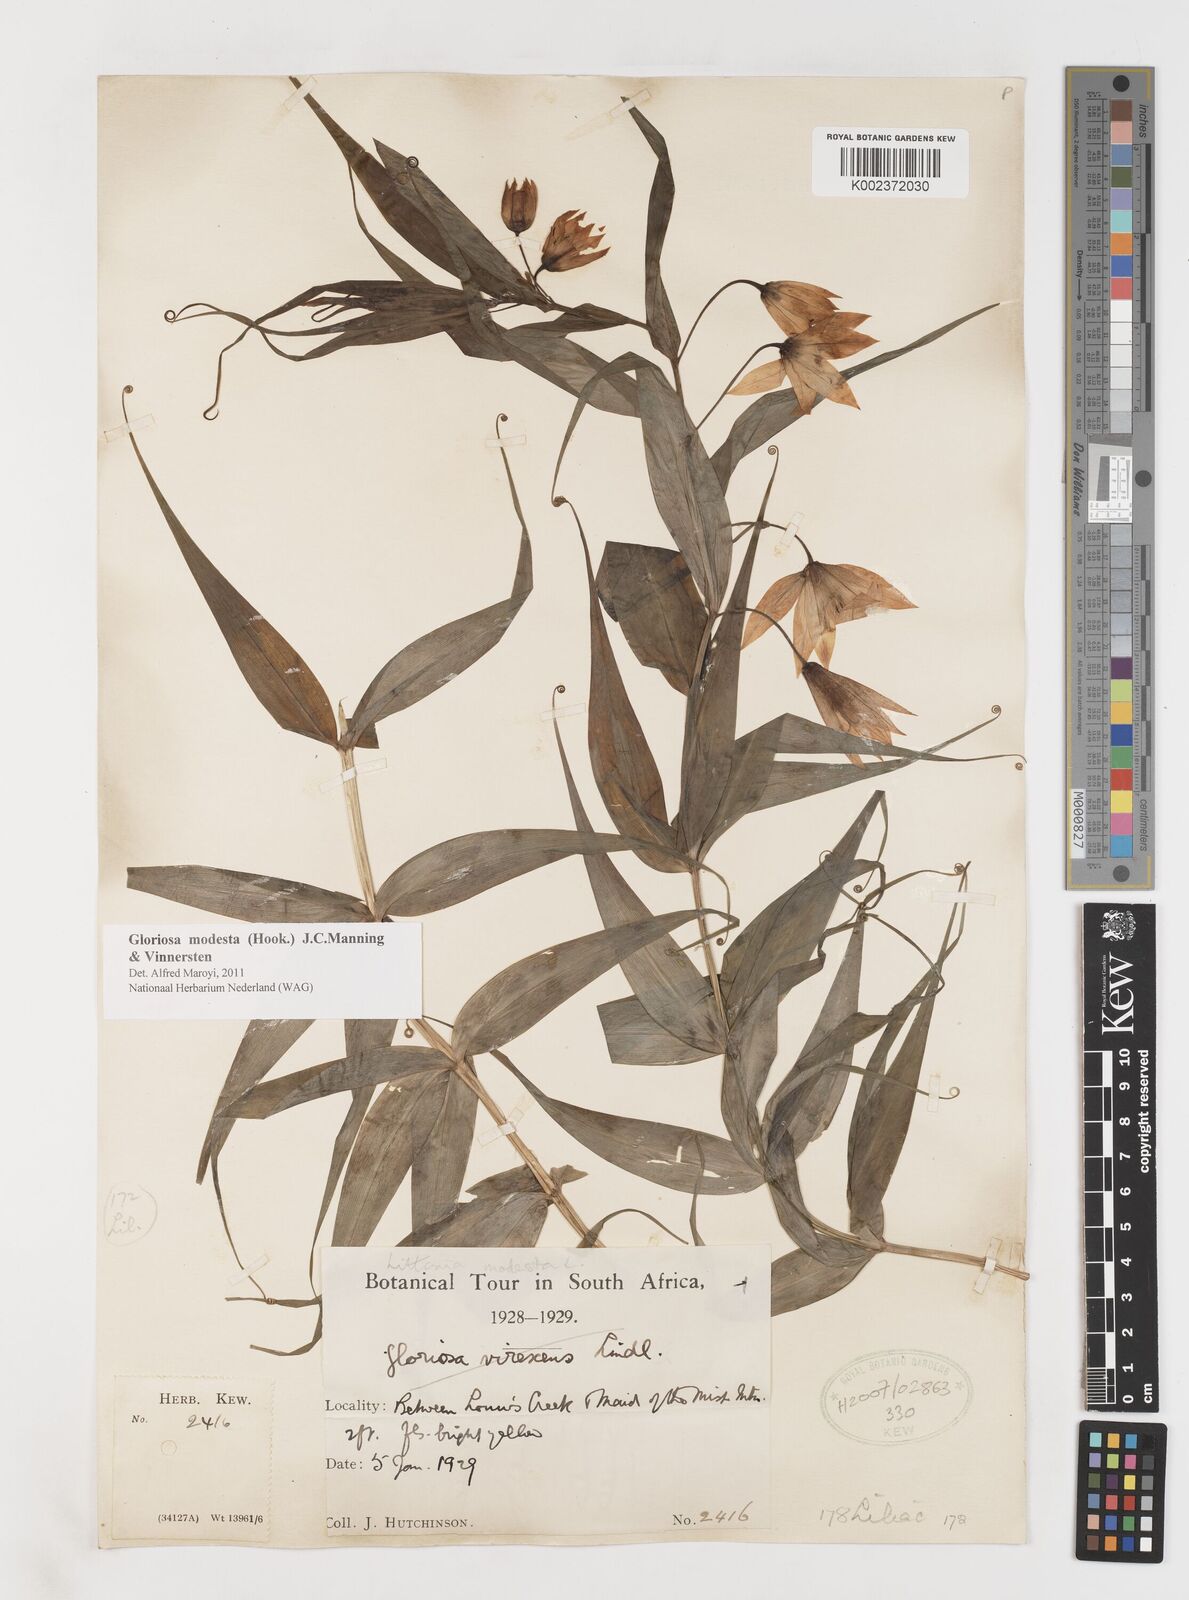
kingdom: Plantae
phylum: Tracheophyta
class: Liliopsida
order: Liliales
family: Colchicaceae
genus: Gloriosa
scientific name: Gloriosa modesta
